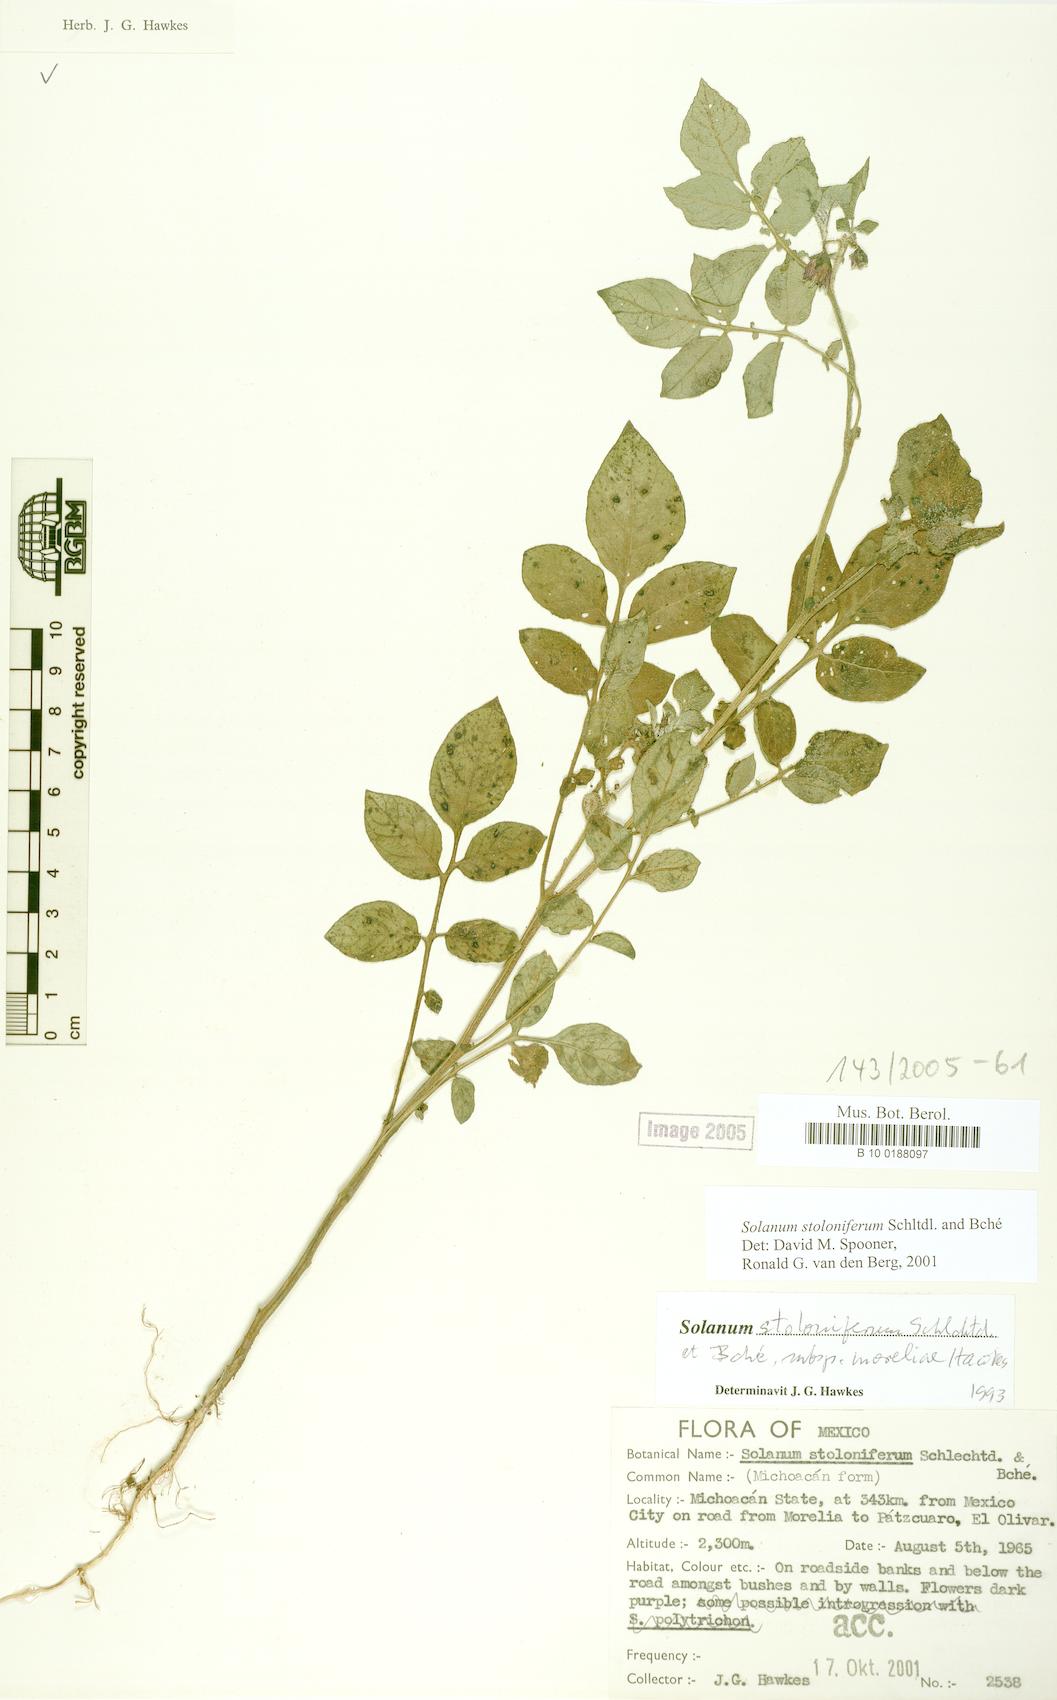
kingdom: Plantae
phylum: Tracheophyta
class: Magnoliopsida
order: Solanales
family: Solanaceae
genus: Solanum
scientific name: Solanum stoloniferum
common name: Fendler's nighshade
